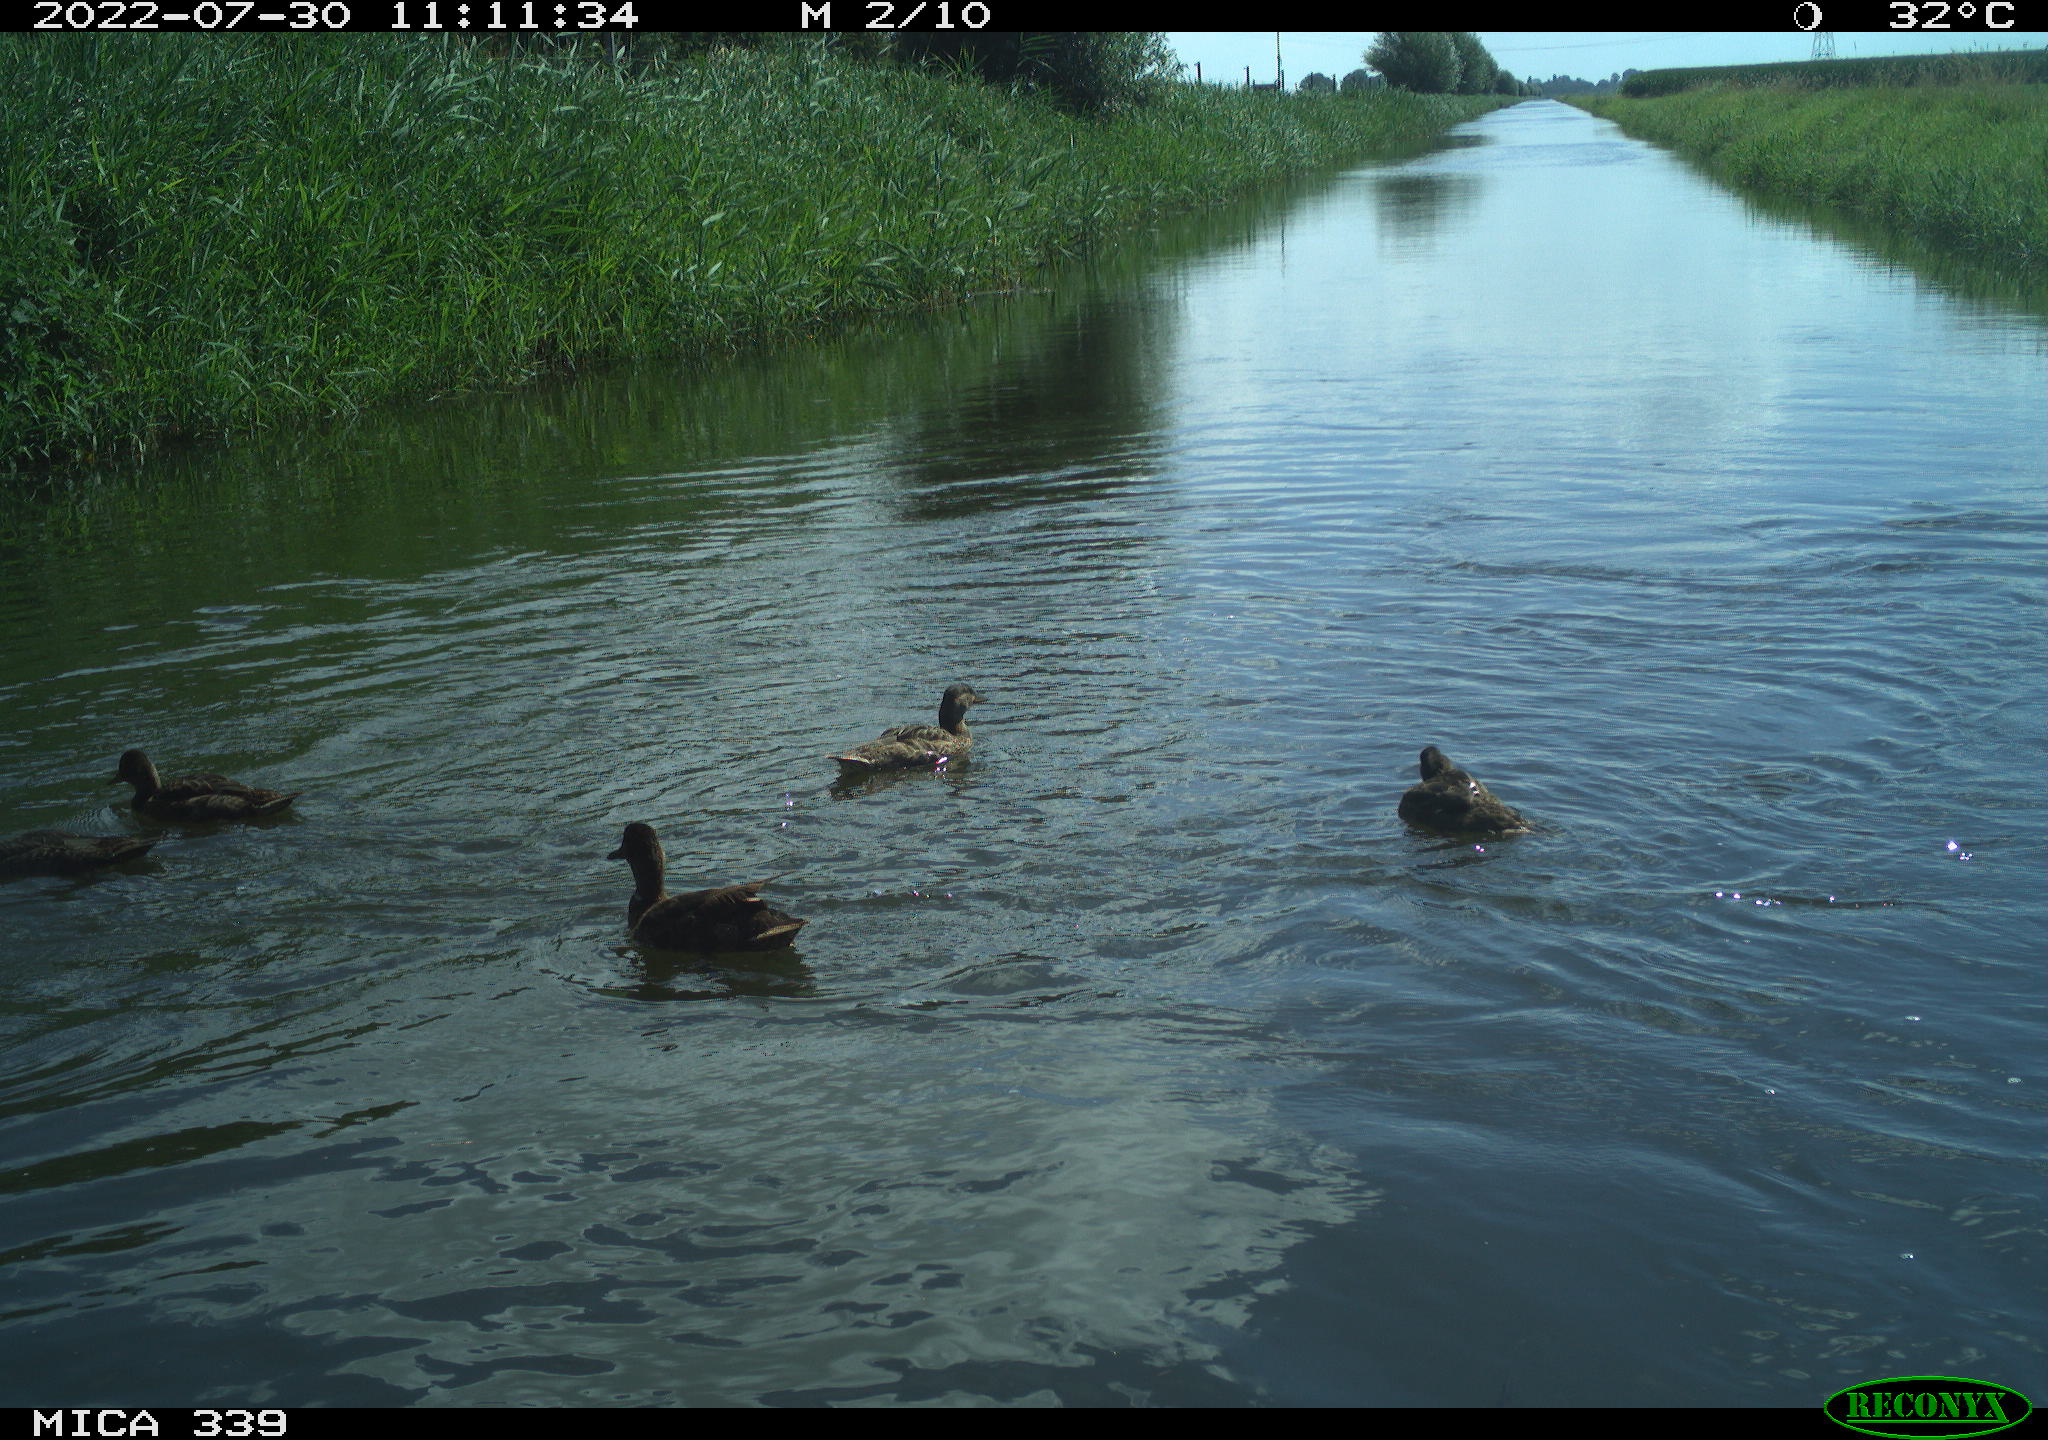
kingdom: Animalia
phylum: Chordata
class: Aves
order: Gruiformes
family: Rallidae
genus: Gallinula
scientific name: Gallinula chloropus
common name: Common moorhen
